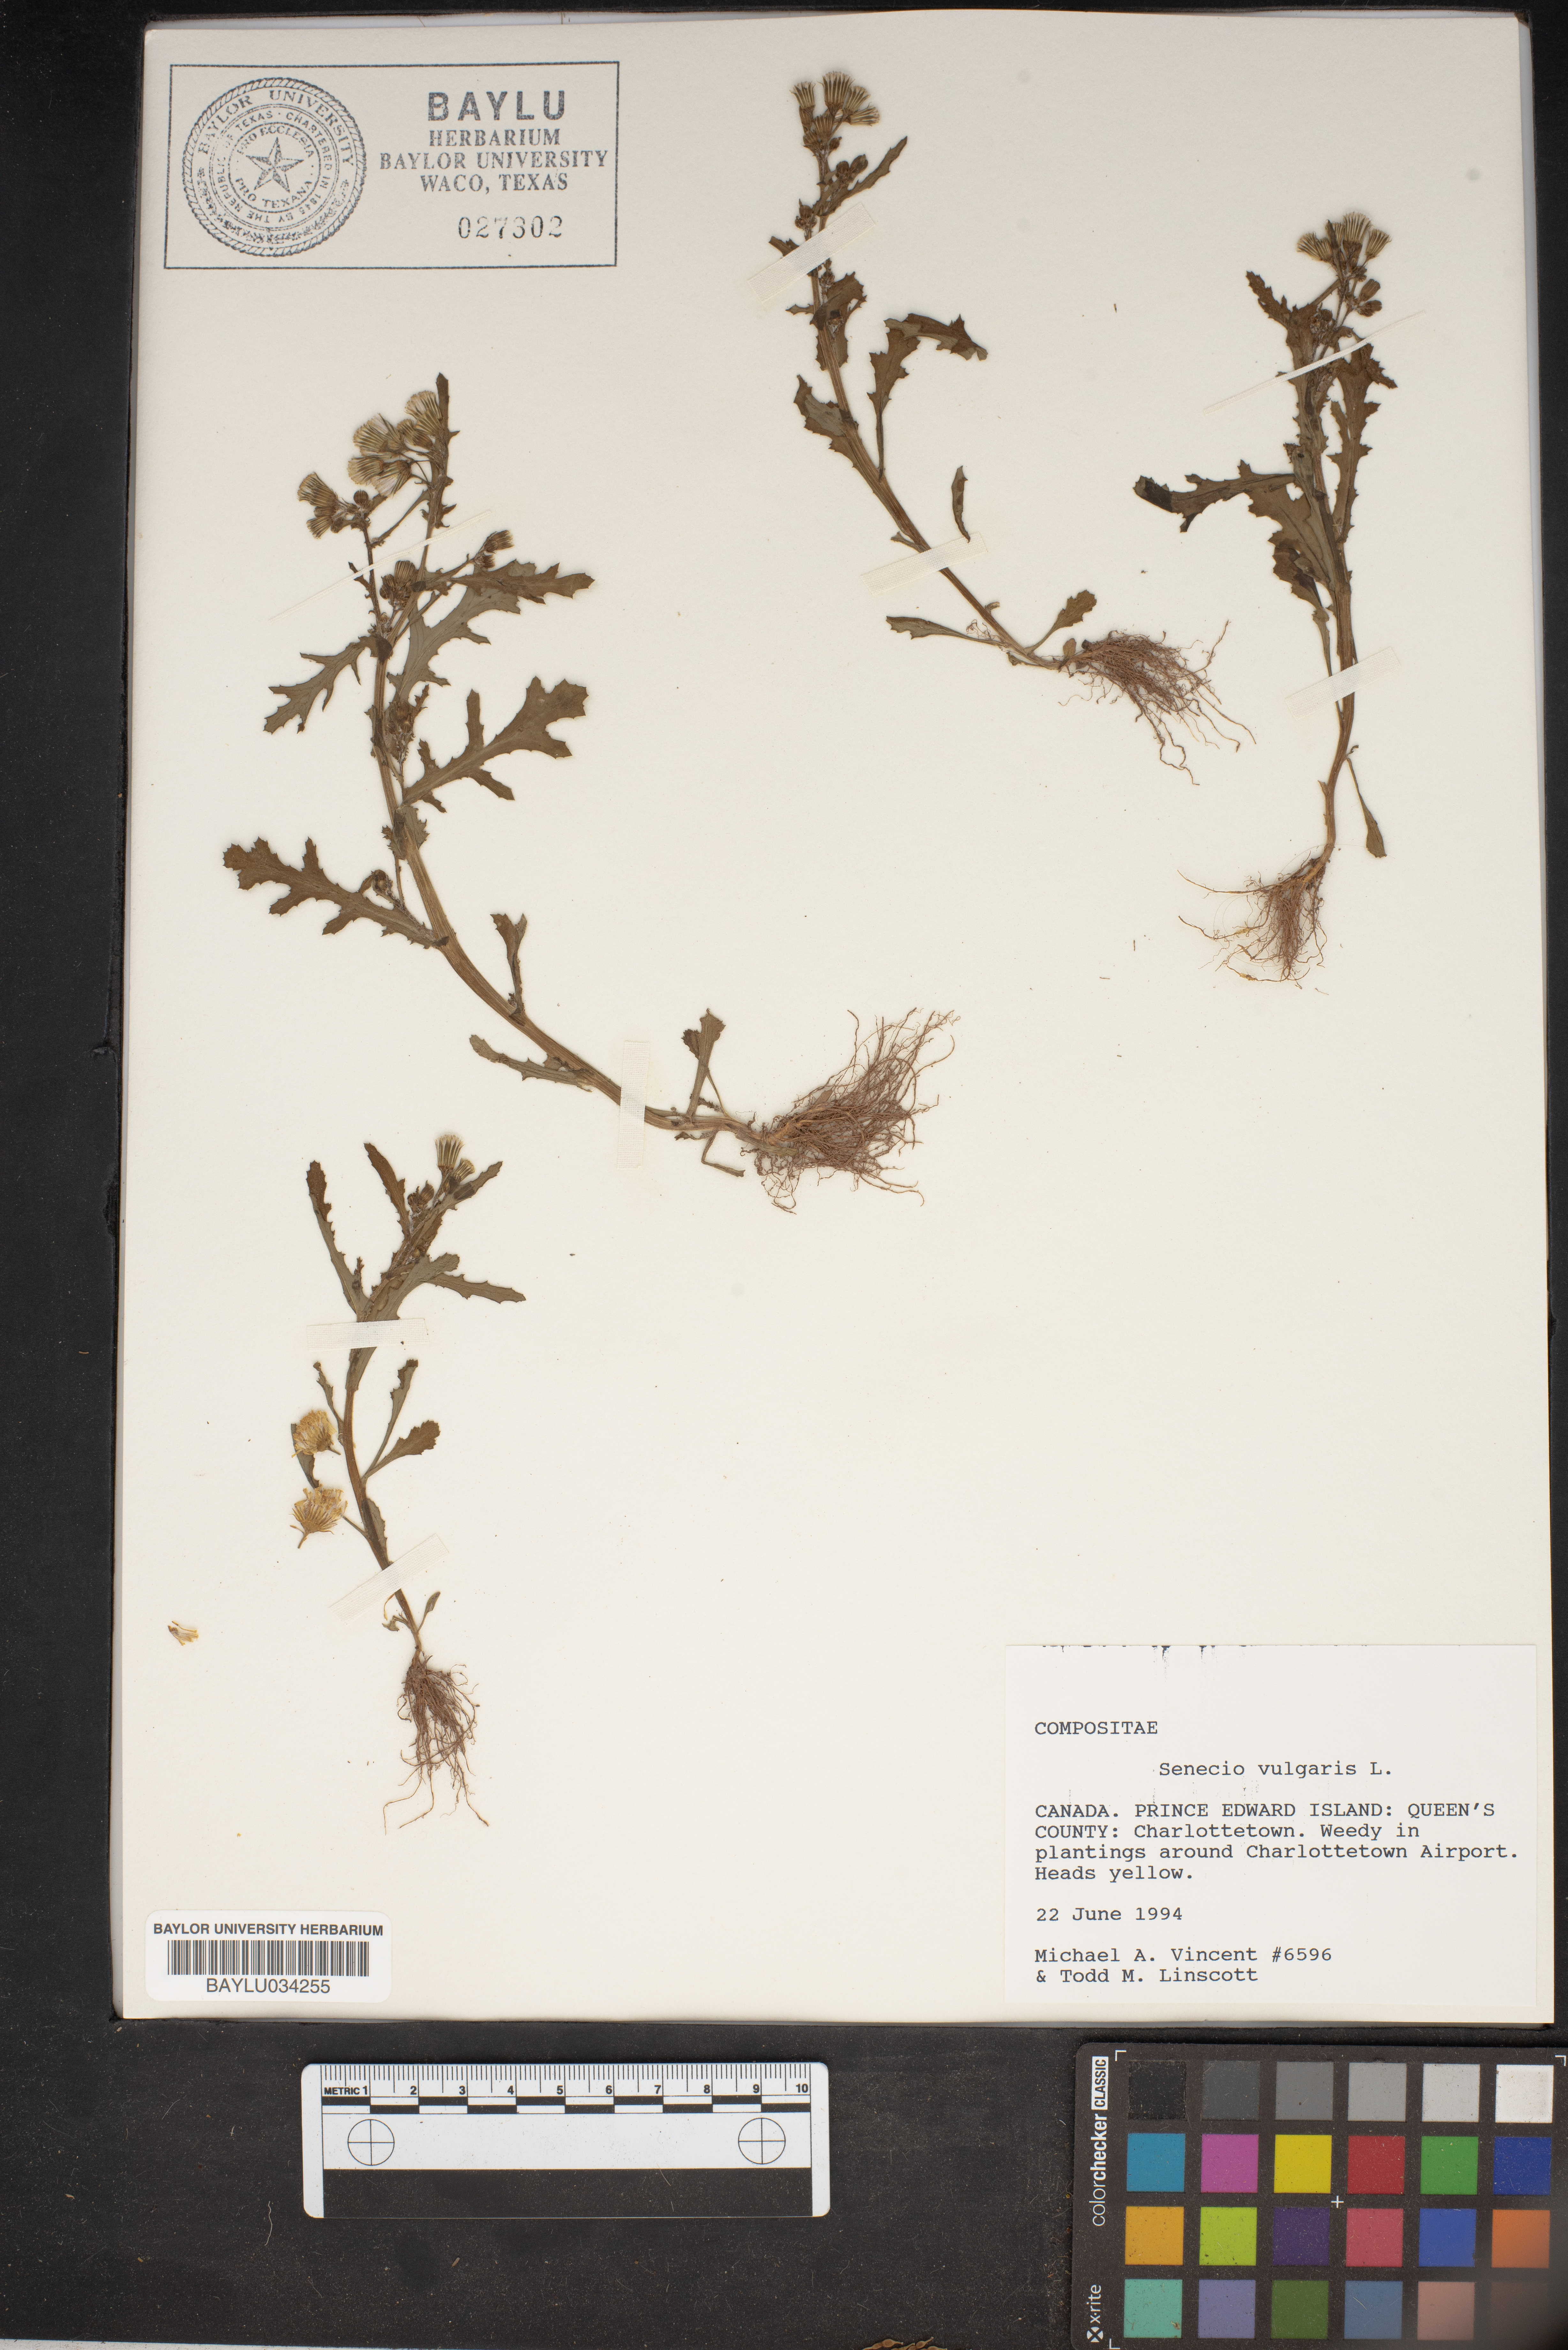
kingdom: Plantae
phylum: Tracheophyta
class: Magnoliopsida
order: Asterales
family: Asteraceae
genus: Senecio
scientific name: Senecio vulgaris
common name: Old-man-in-the-spring
